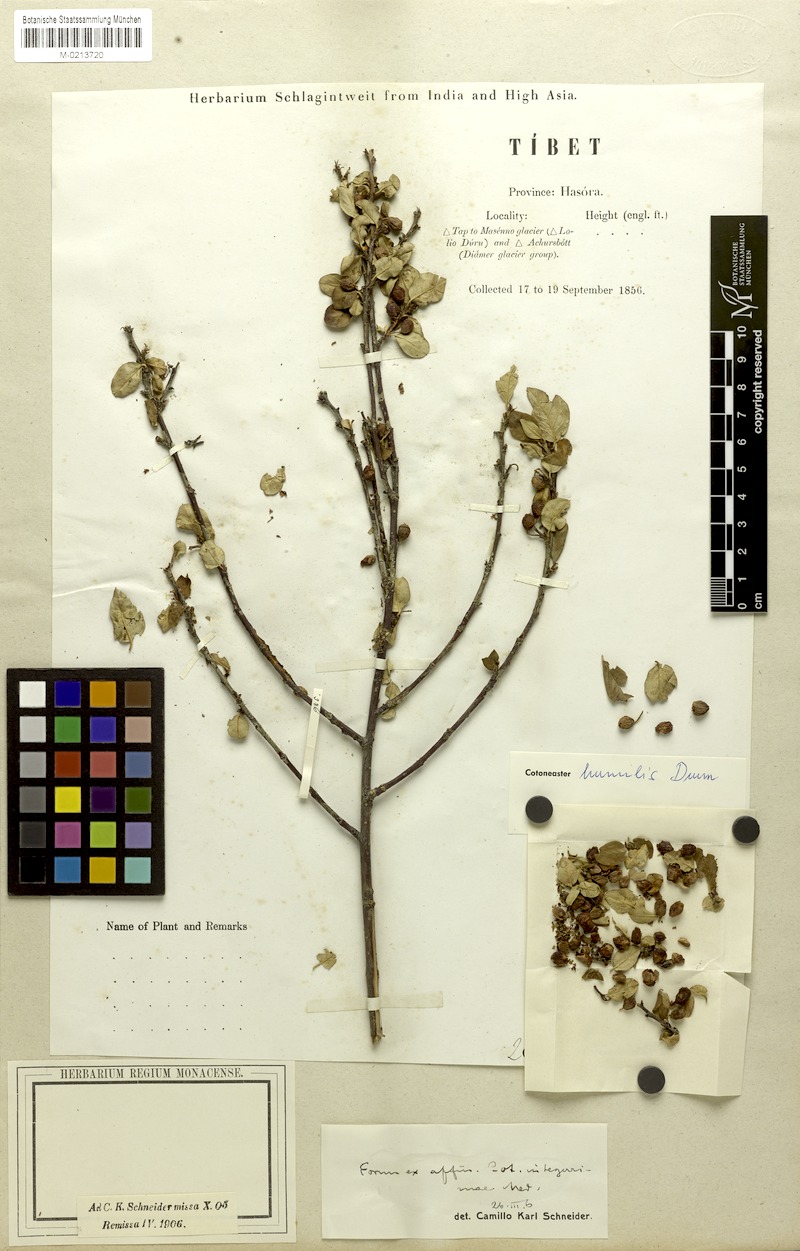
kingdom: Plantae
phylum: Tracheophyta
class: Magnoliopsida
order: Rosales
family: Rosaceae
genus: Cotoneaster
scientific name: Cotoneaster integerrimus
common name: Wild cotoneaster
